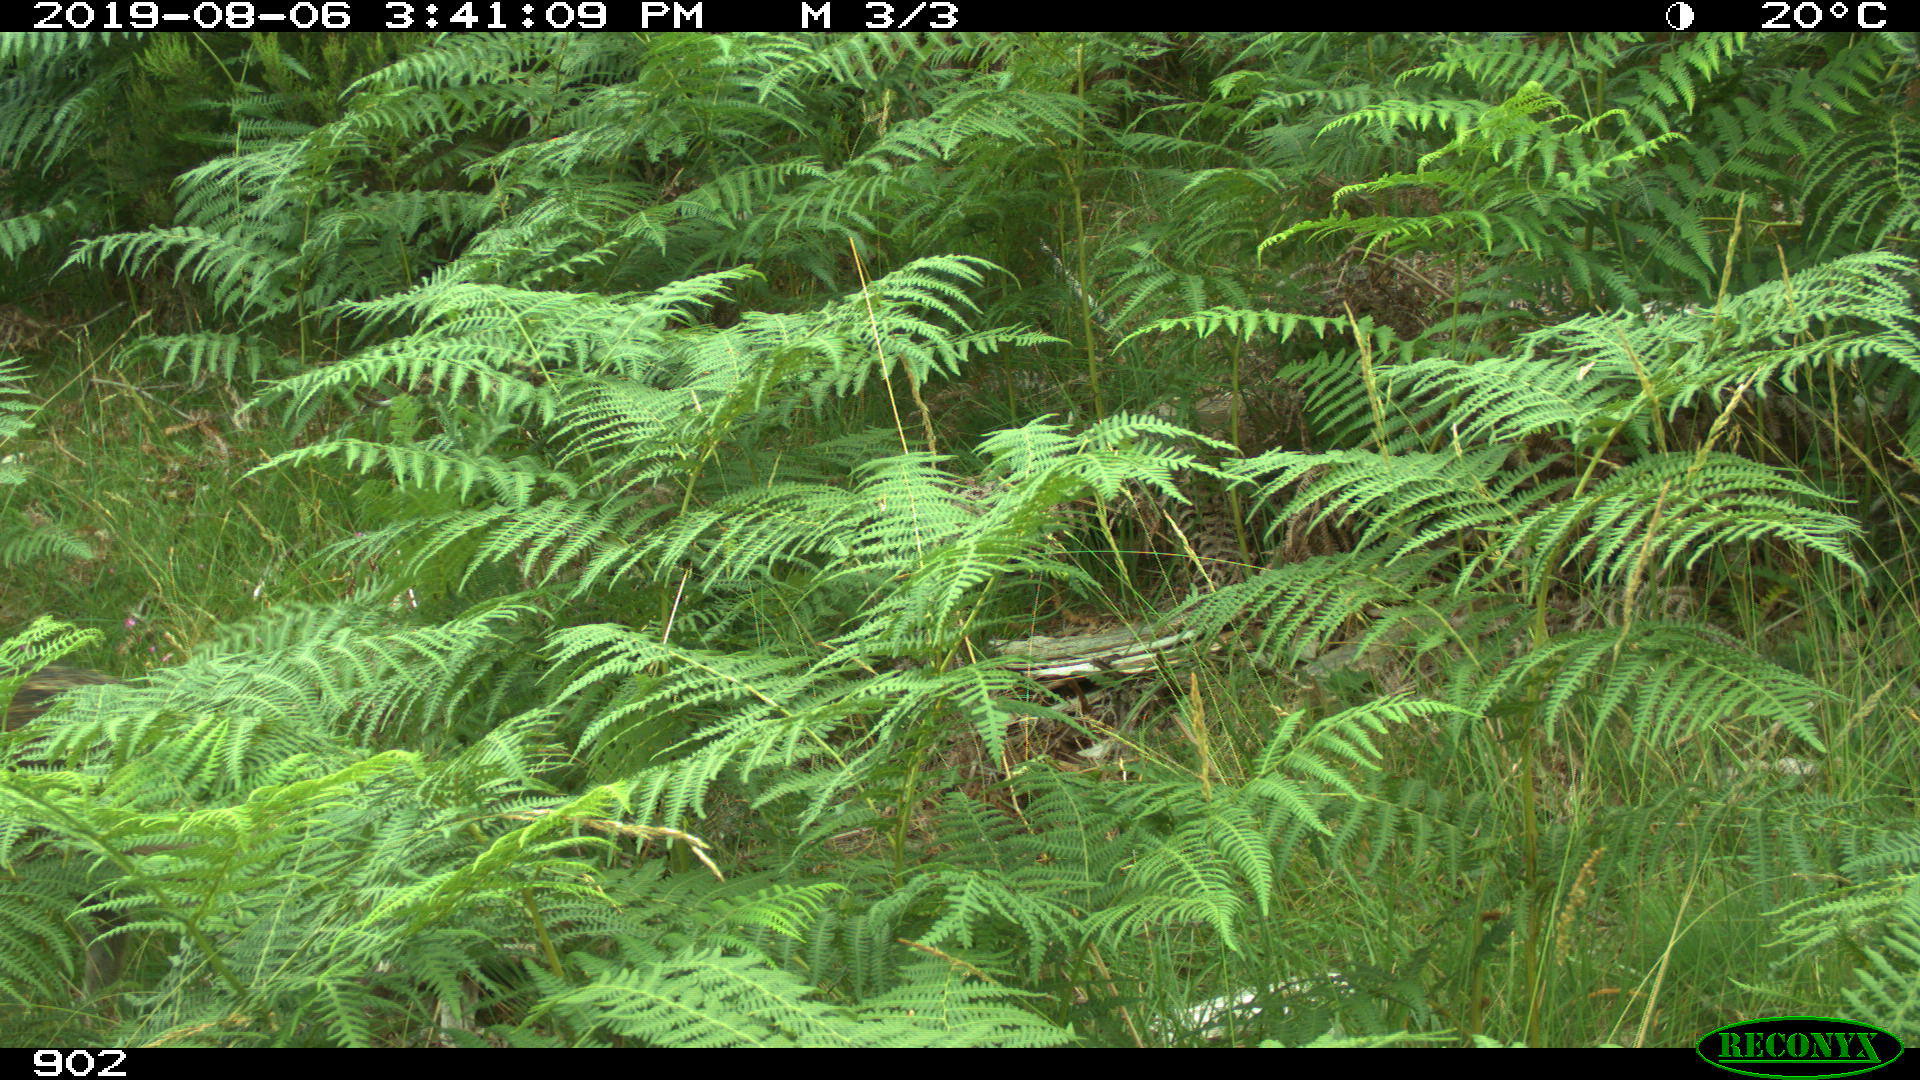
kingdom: Animalia
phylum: Chordata
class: Mammalia
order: Artiodactyla
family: Suidae
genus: Sus
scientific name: Sus scrofa
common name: Wild boar
